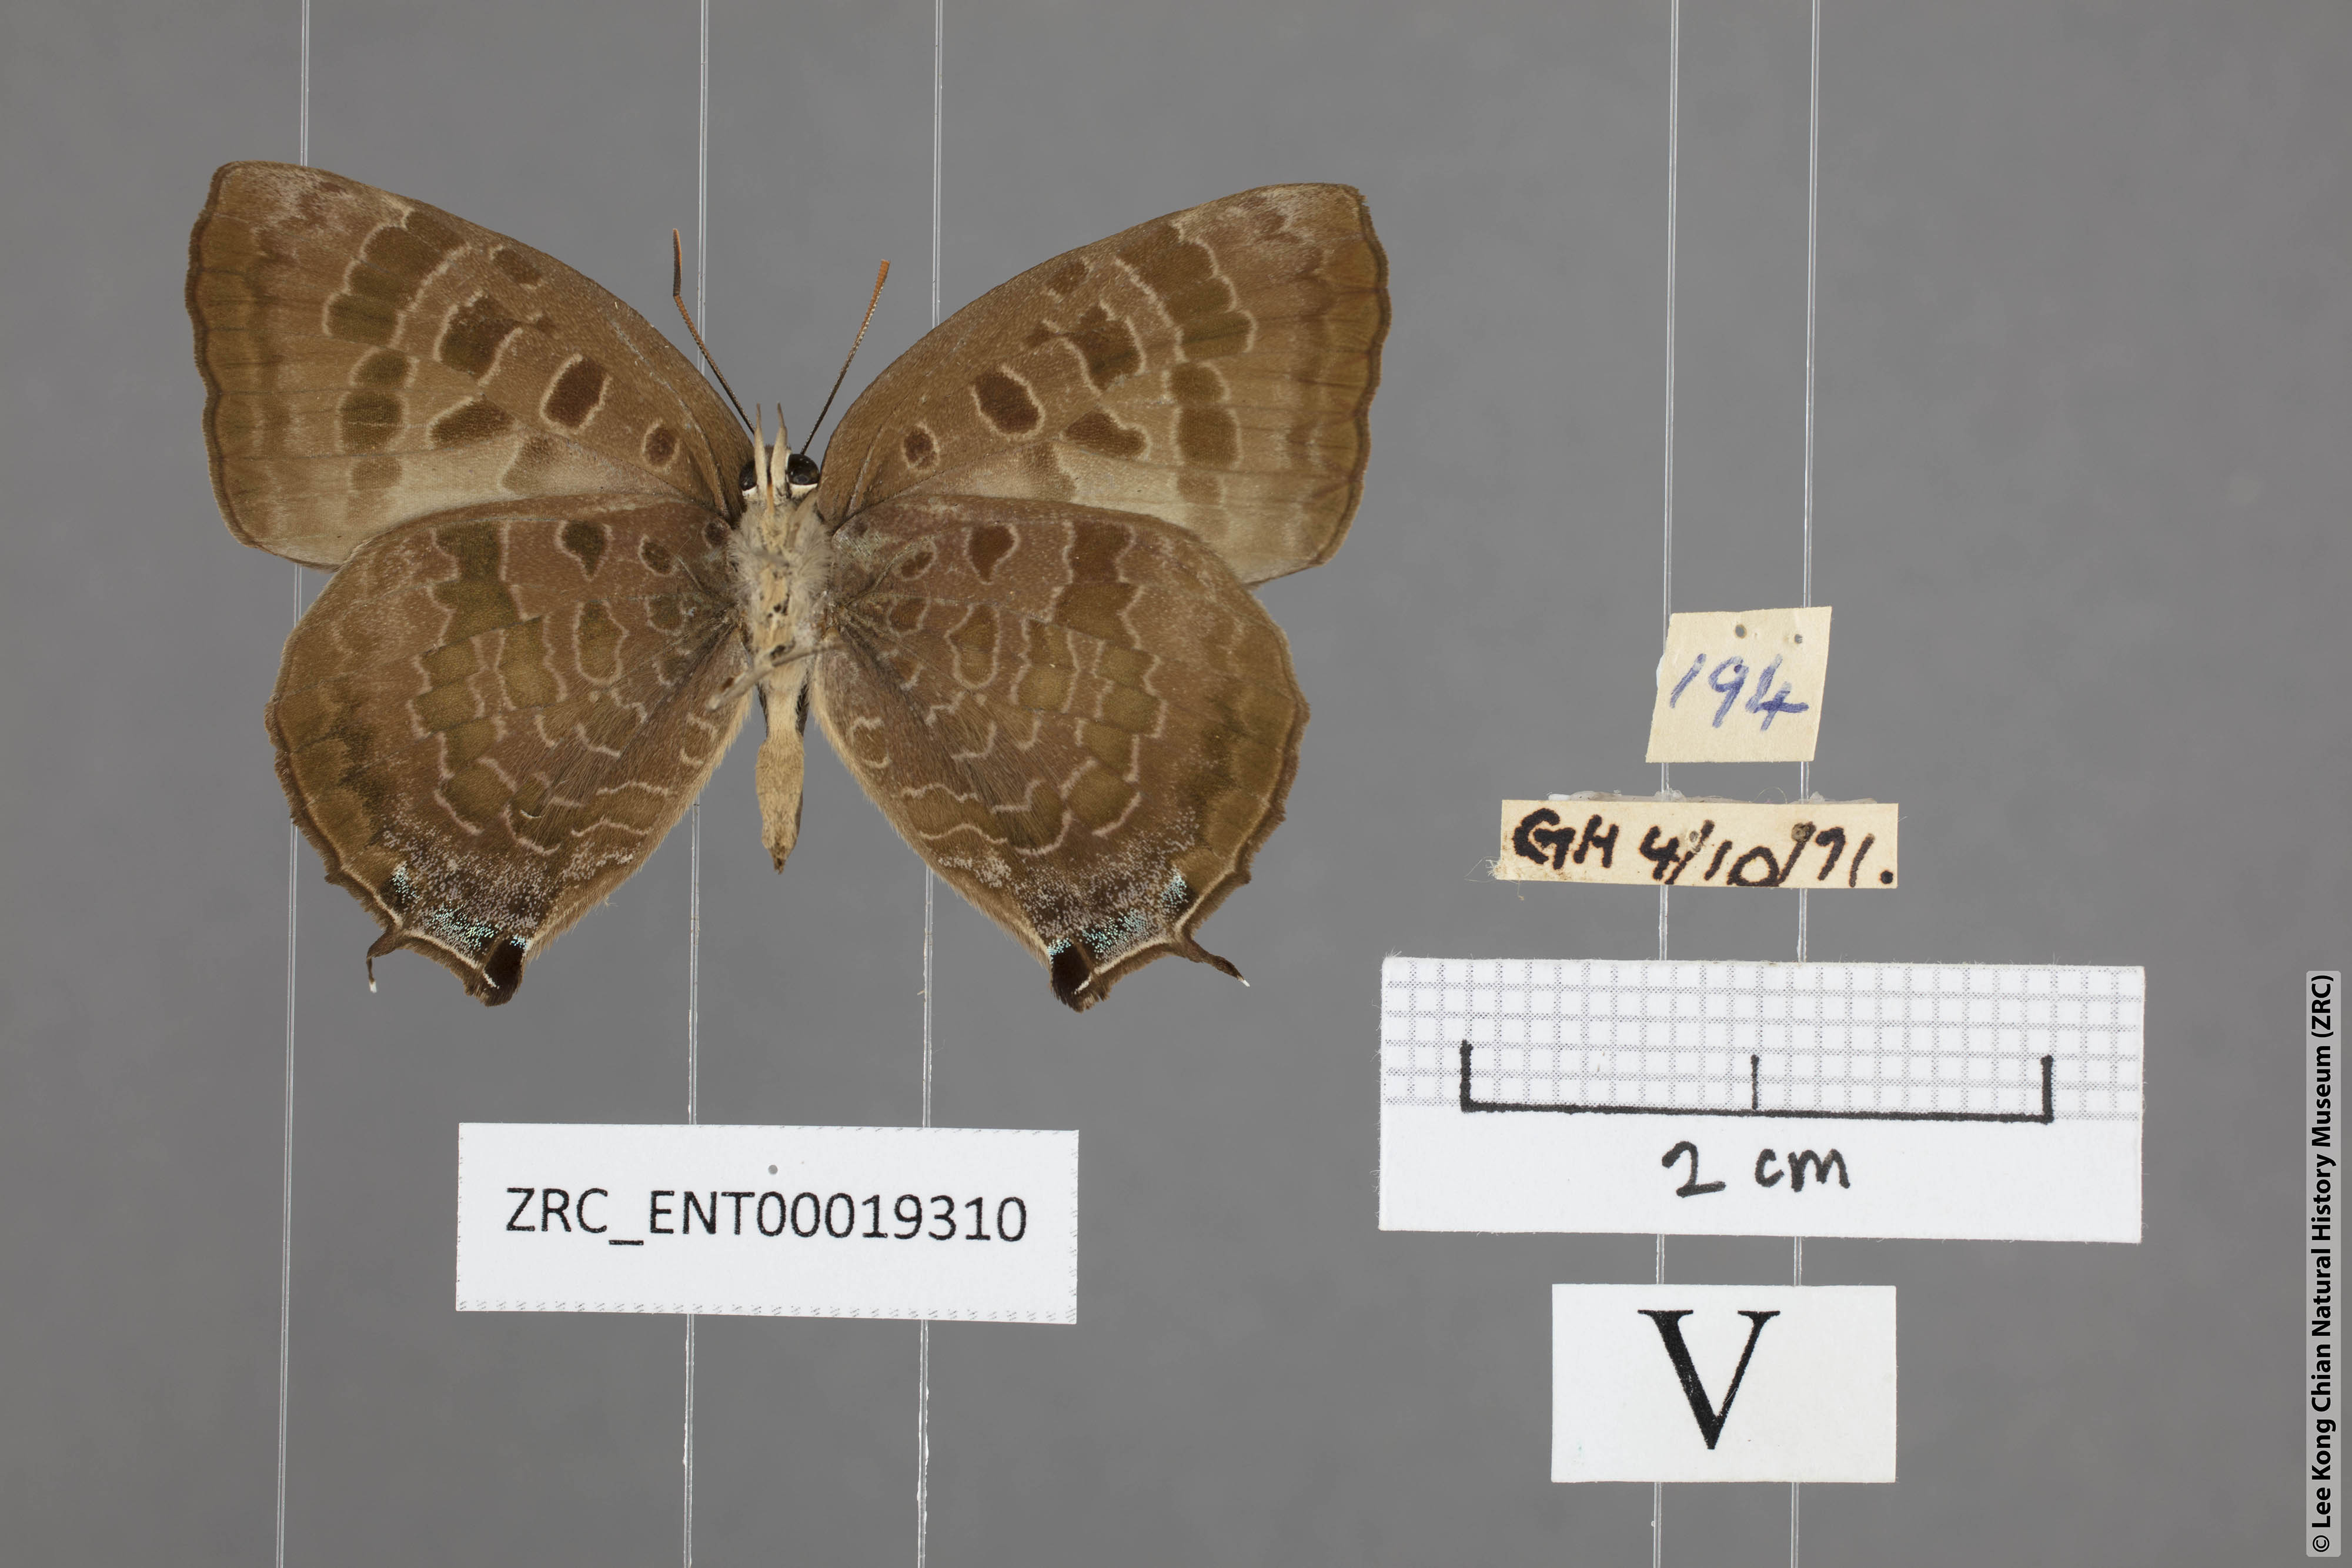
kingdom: Animalia
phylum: Arthropoda
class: Insecta
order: Lepidoptera
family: Lycaenidae
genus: Arhopala
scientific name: Arhopala bazalus
